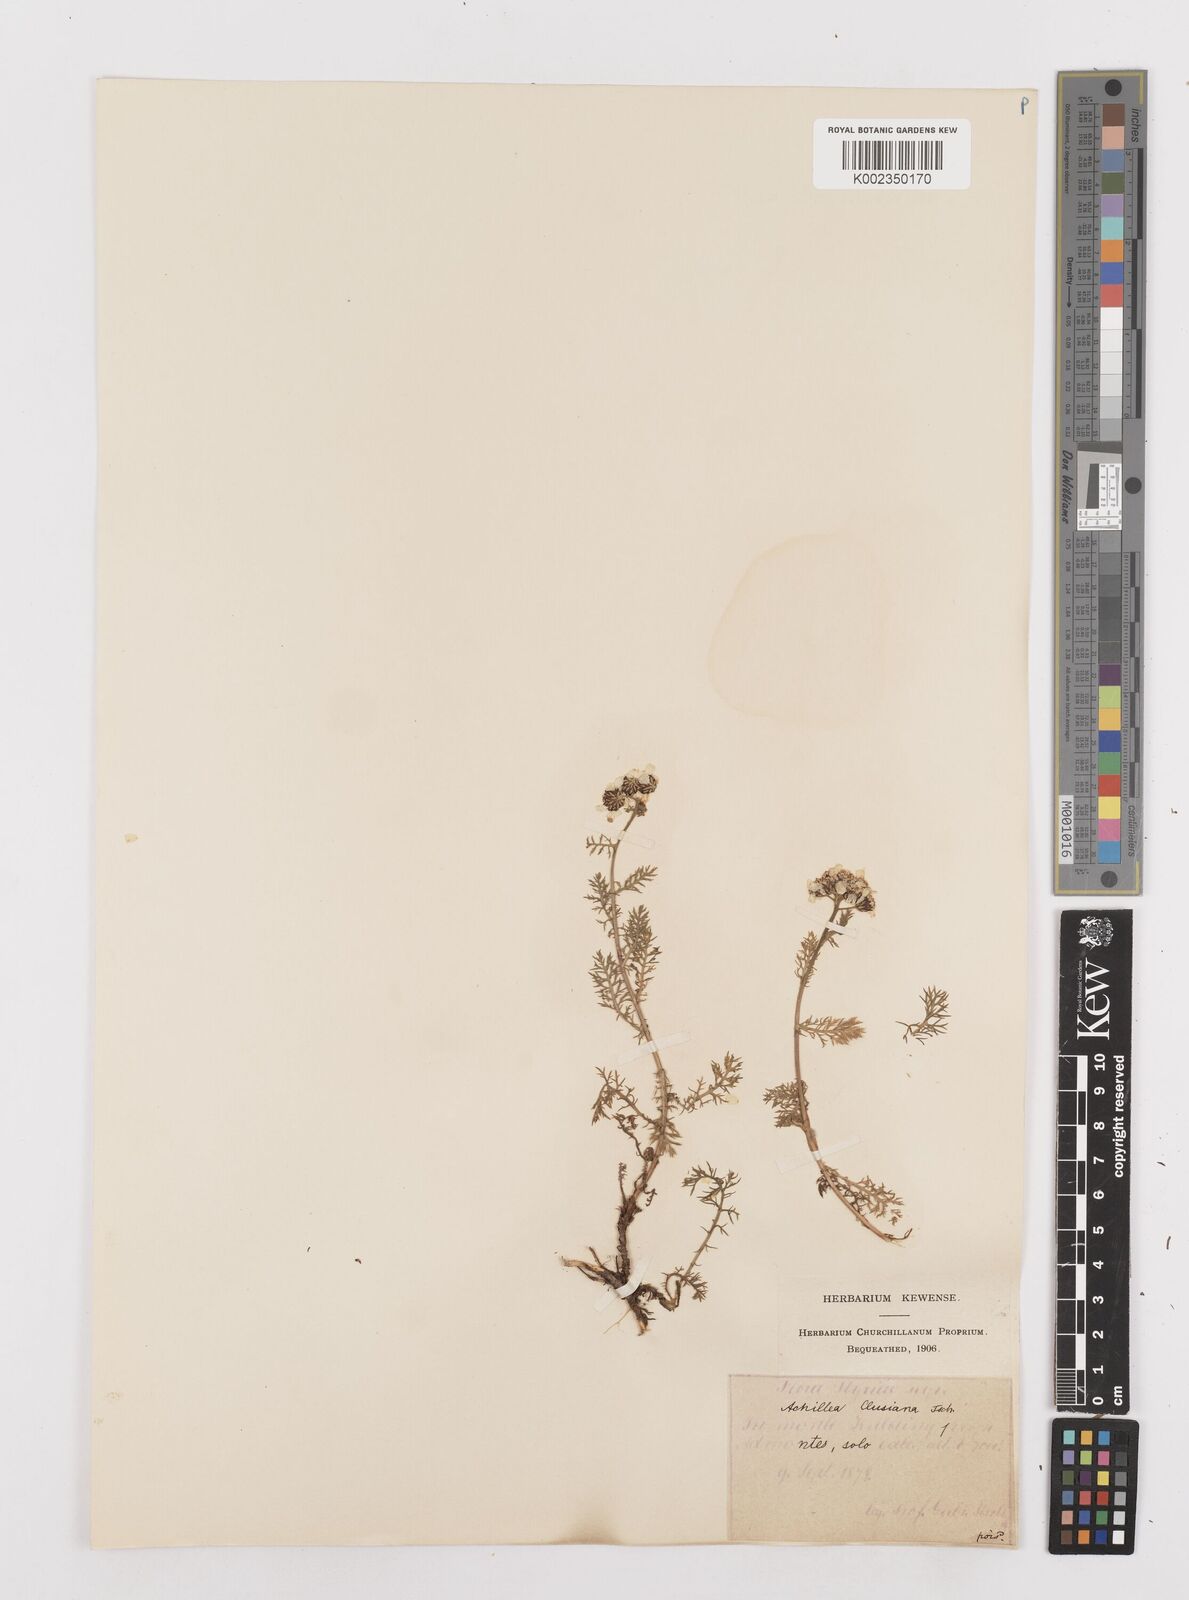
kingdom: Plantae
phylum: Tracheophyta
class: Magnoliopsida
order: Asterales
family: Asteraceae
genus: Achillea
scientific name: Achillea clusiana
